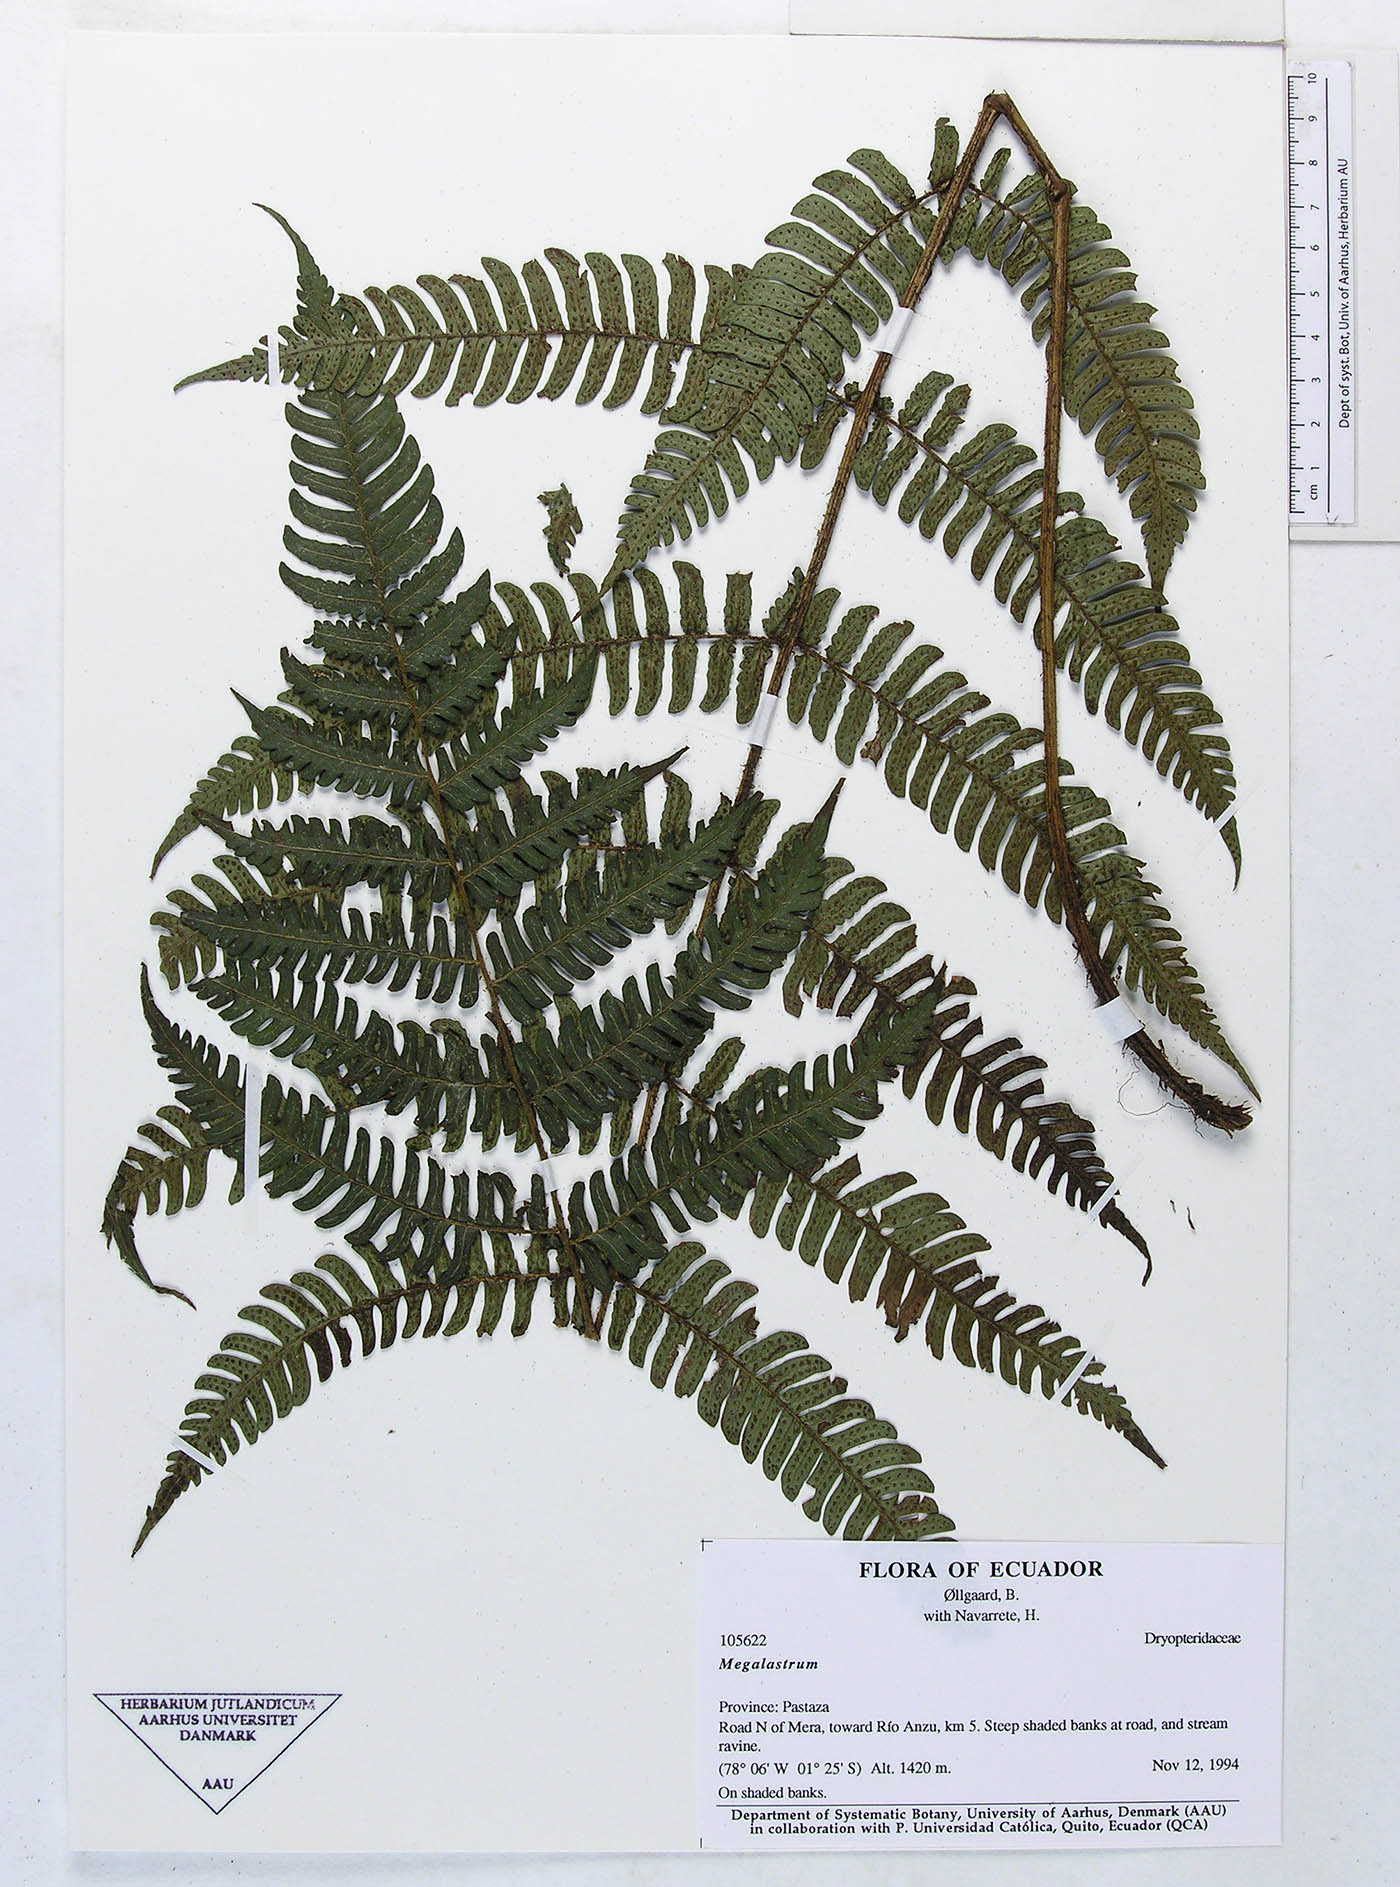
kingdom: Plantae
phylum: Tracheophyta
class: Polypodiopsida
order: Polypodiales
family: Dryopteridaceae
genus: Megalastrum
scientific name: Megalastrum biseriale
